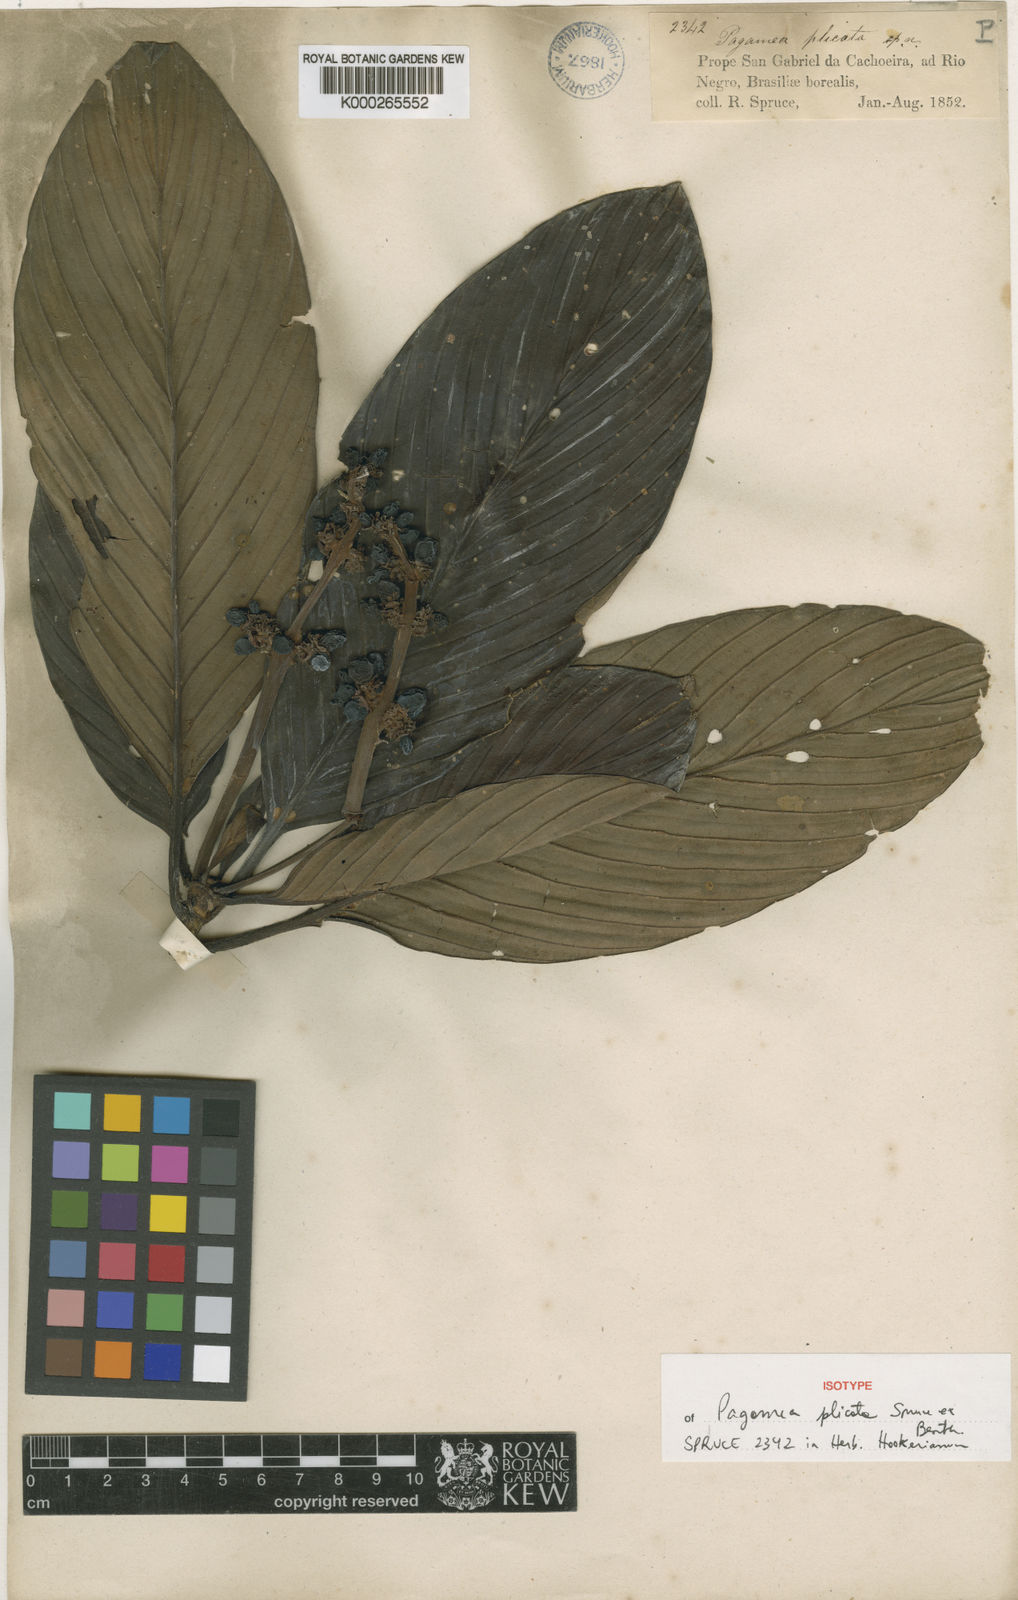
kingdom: Plantae
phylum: Tracheophyta
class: Magnoliopsida
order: Gentianales
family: Rubiaceae
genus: Pagamea
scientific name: Pagamea plicata
